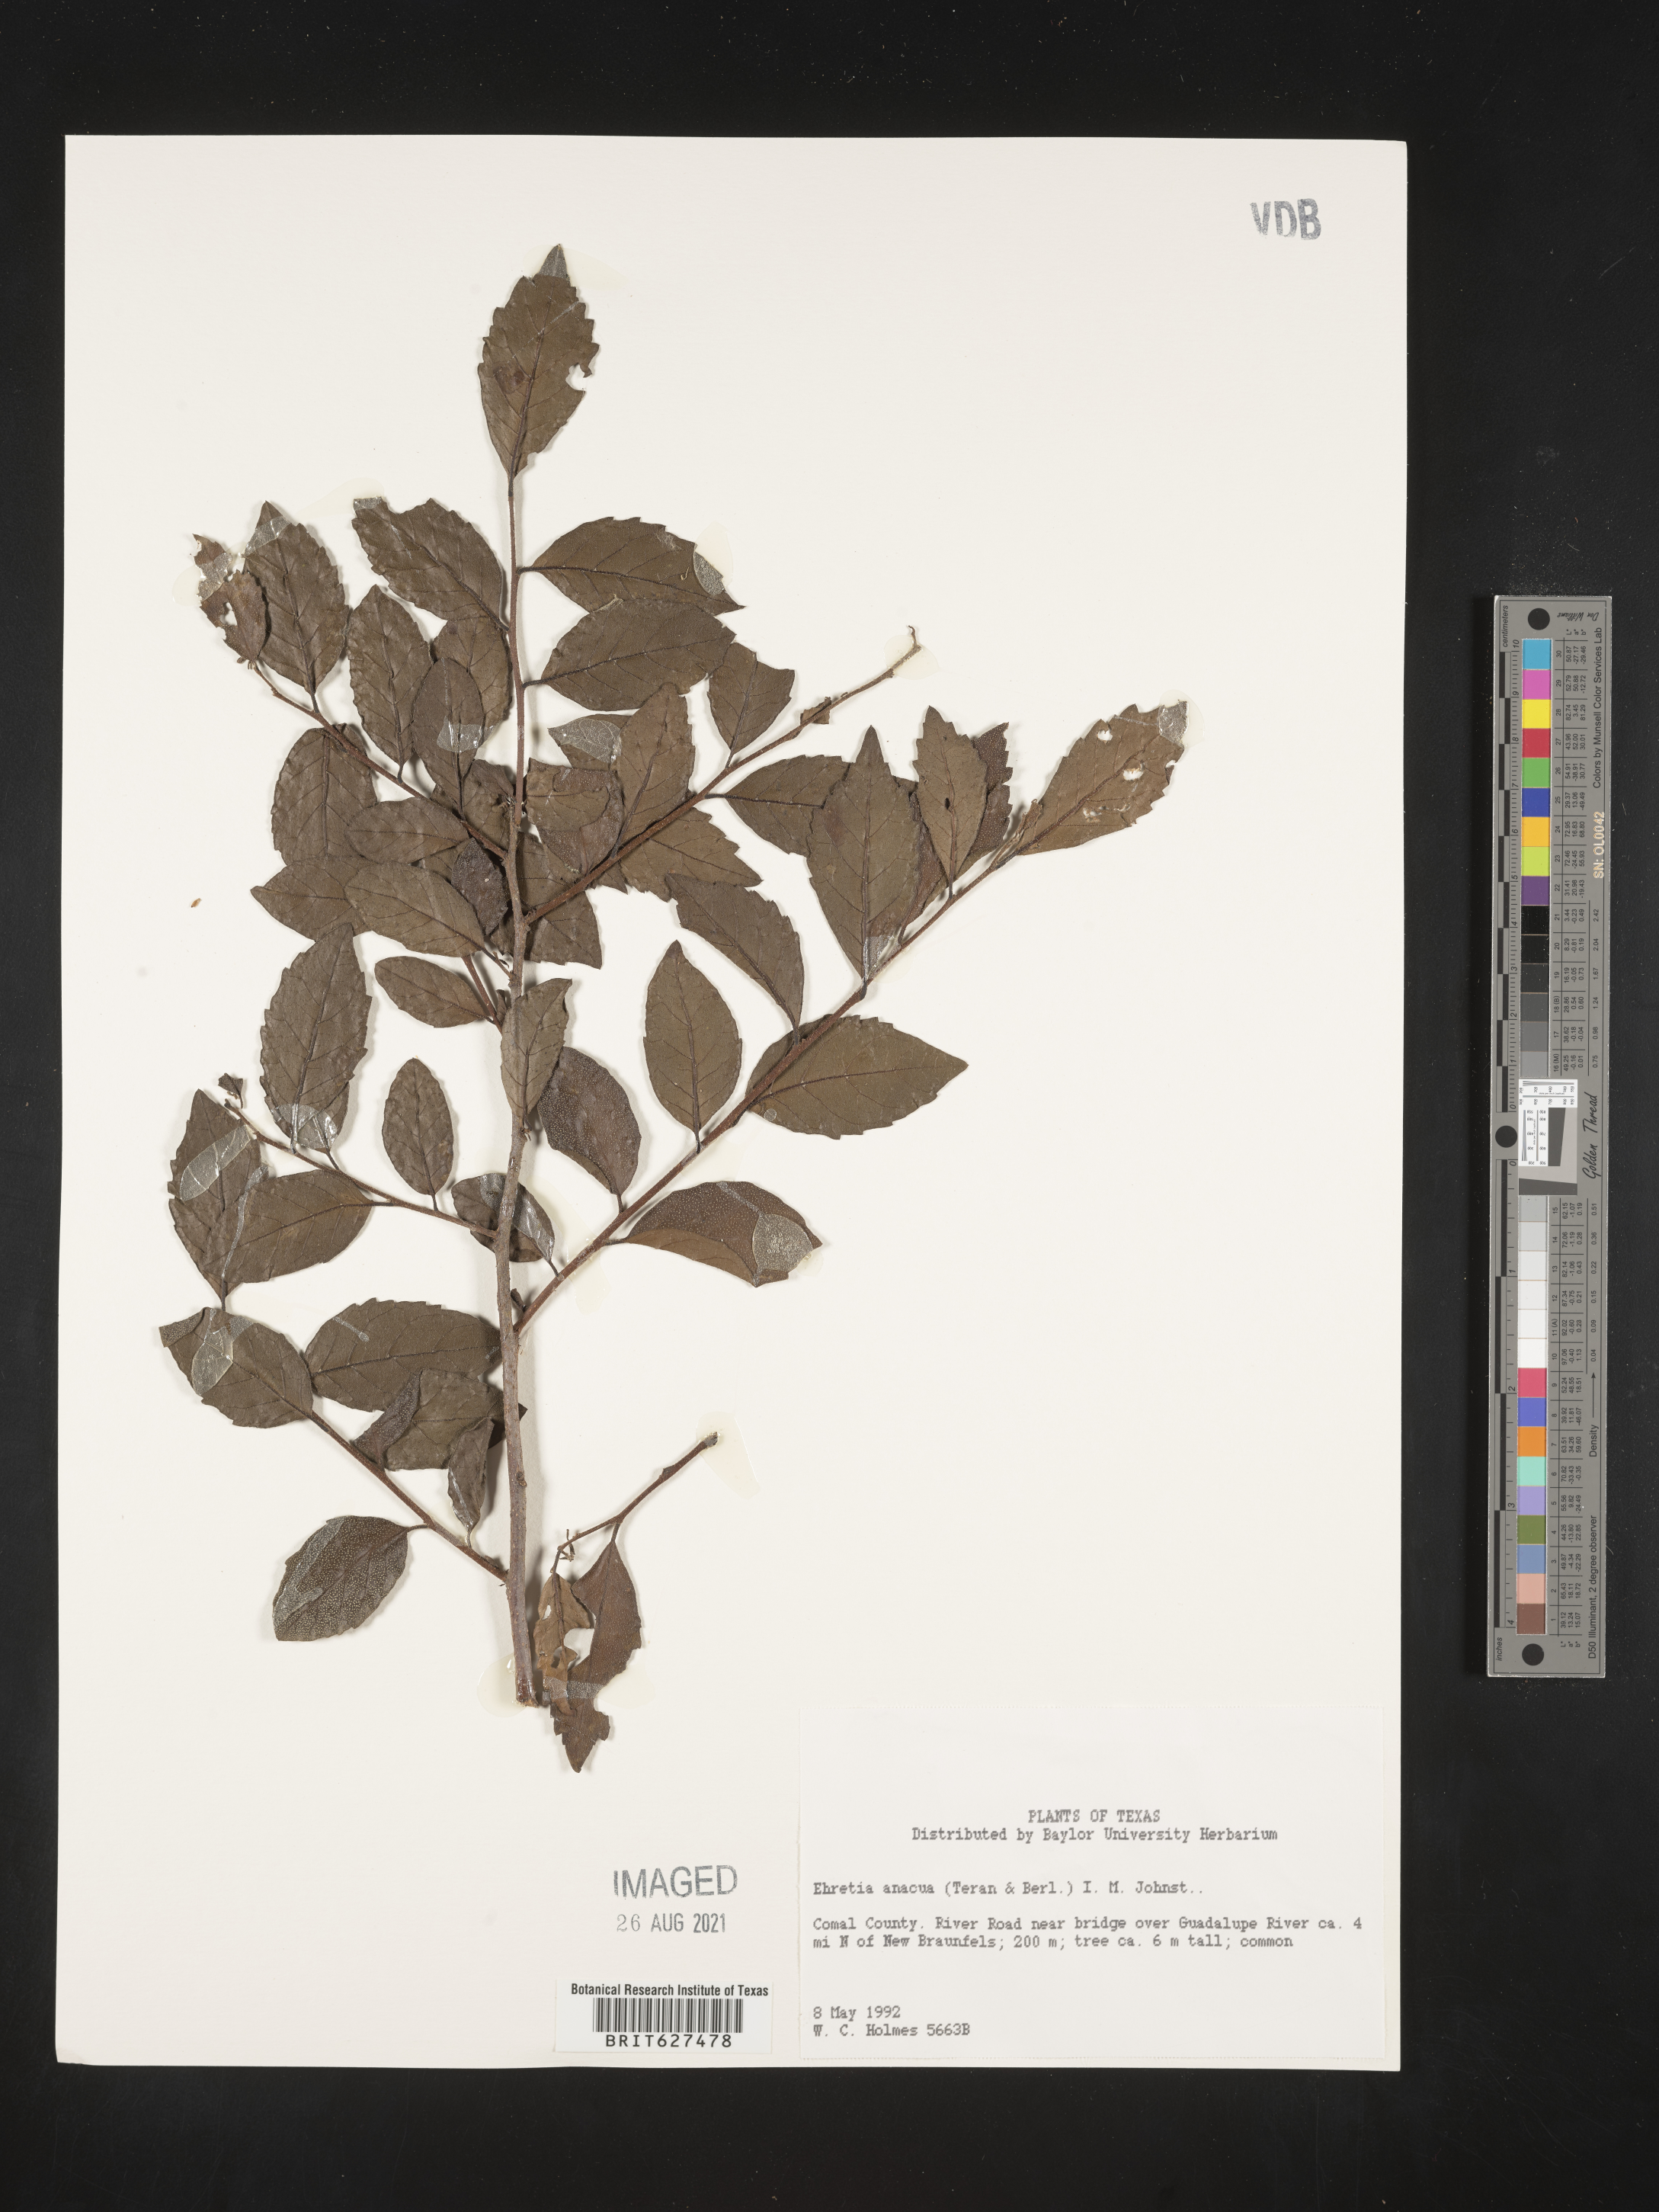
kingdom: Plantae
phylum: Tracheophyta
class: Magnoliopsida
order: Boraginales
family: Ehretiaceae
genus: Ehretia
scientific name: Ehretia anacua
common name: Sugarberry
